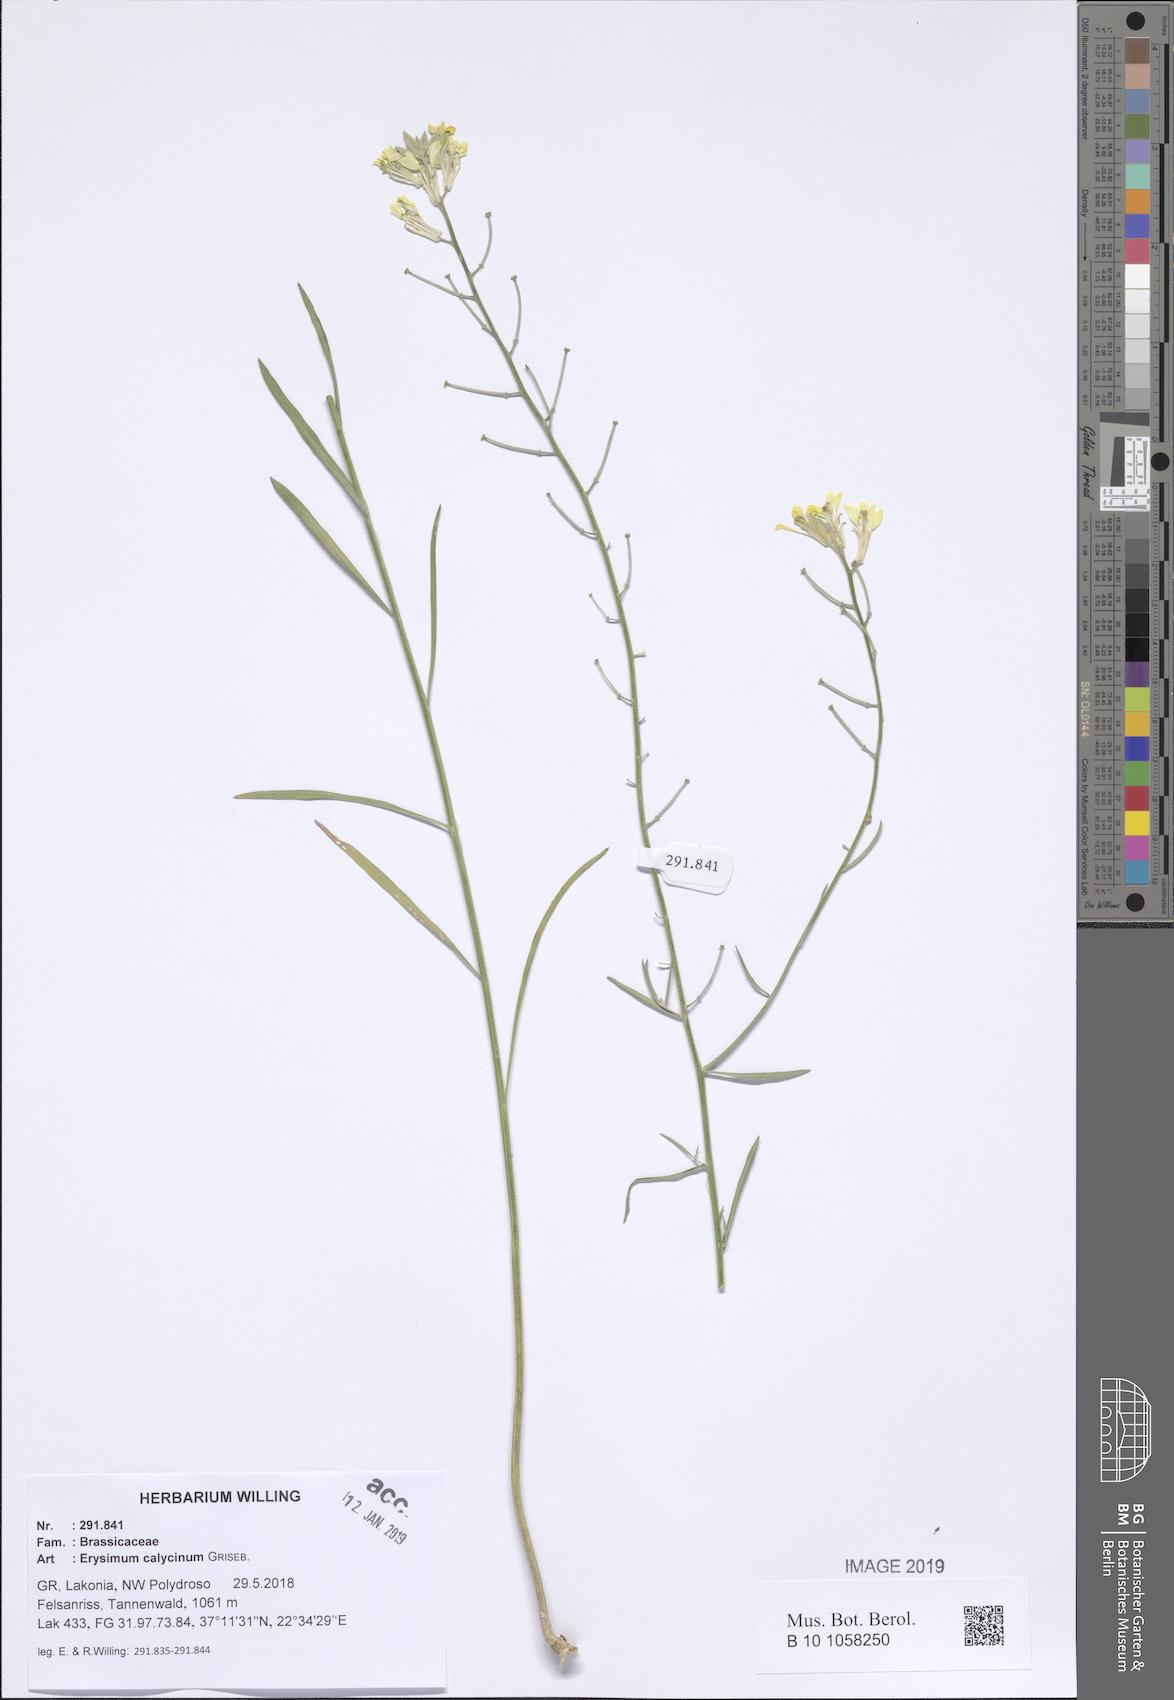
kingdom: Plantae
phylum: Tracheophyta
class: Magnoliopsida
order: Brassicales
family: Brassicaceae
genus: Erysimum
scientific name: Erysimum calycinum
